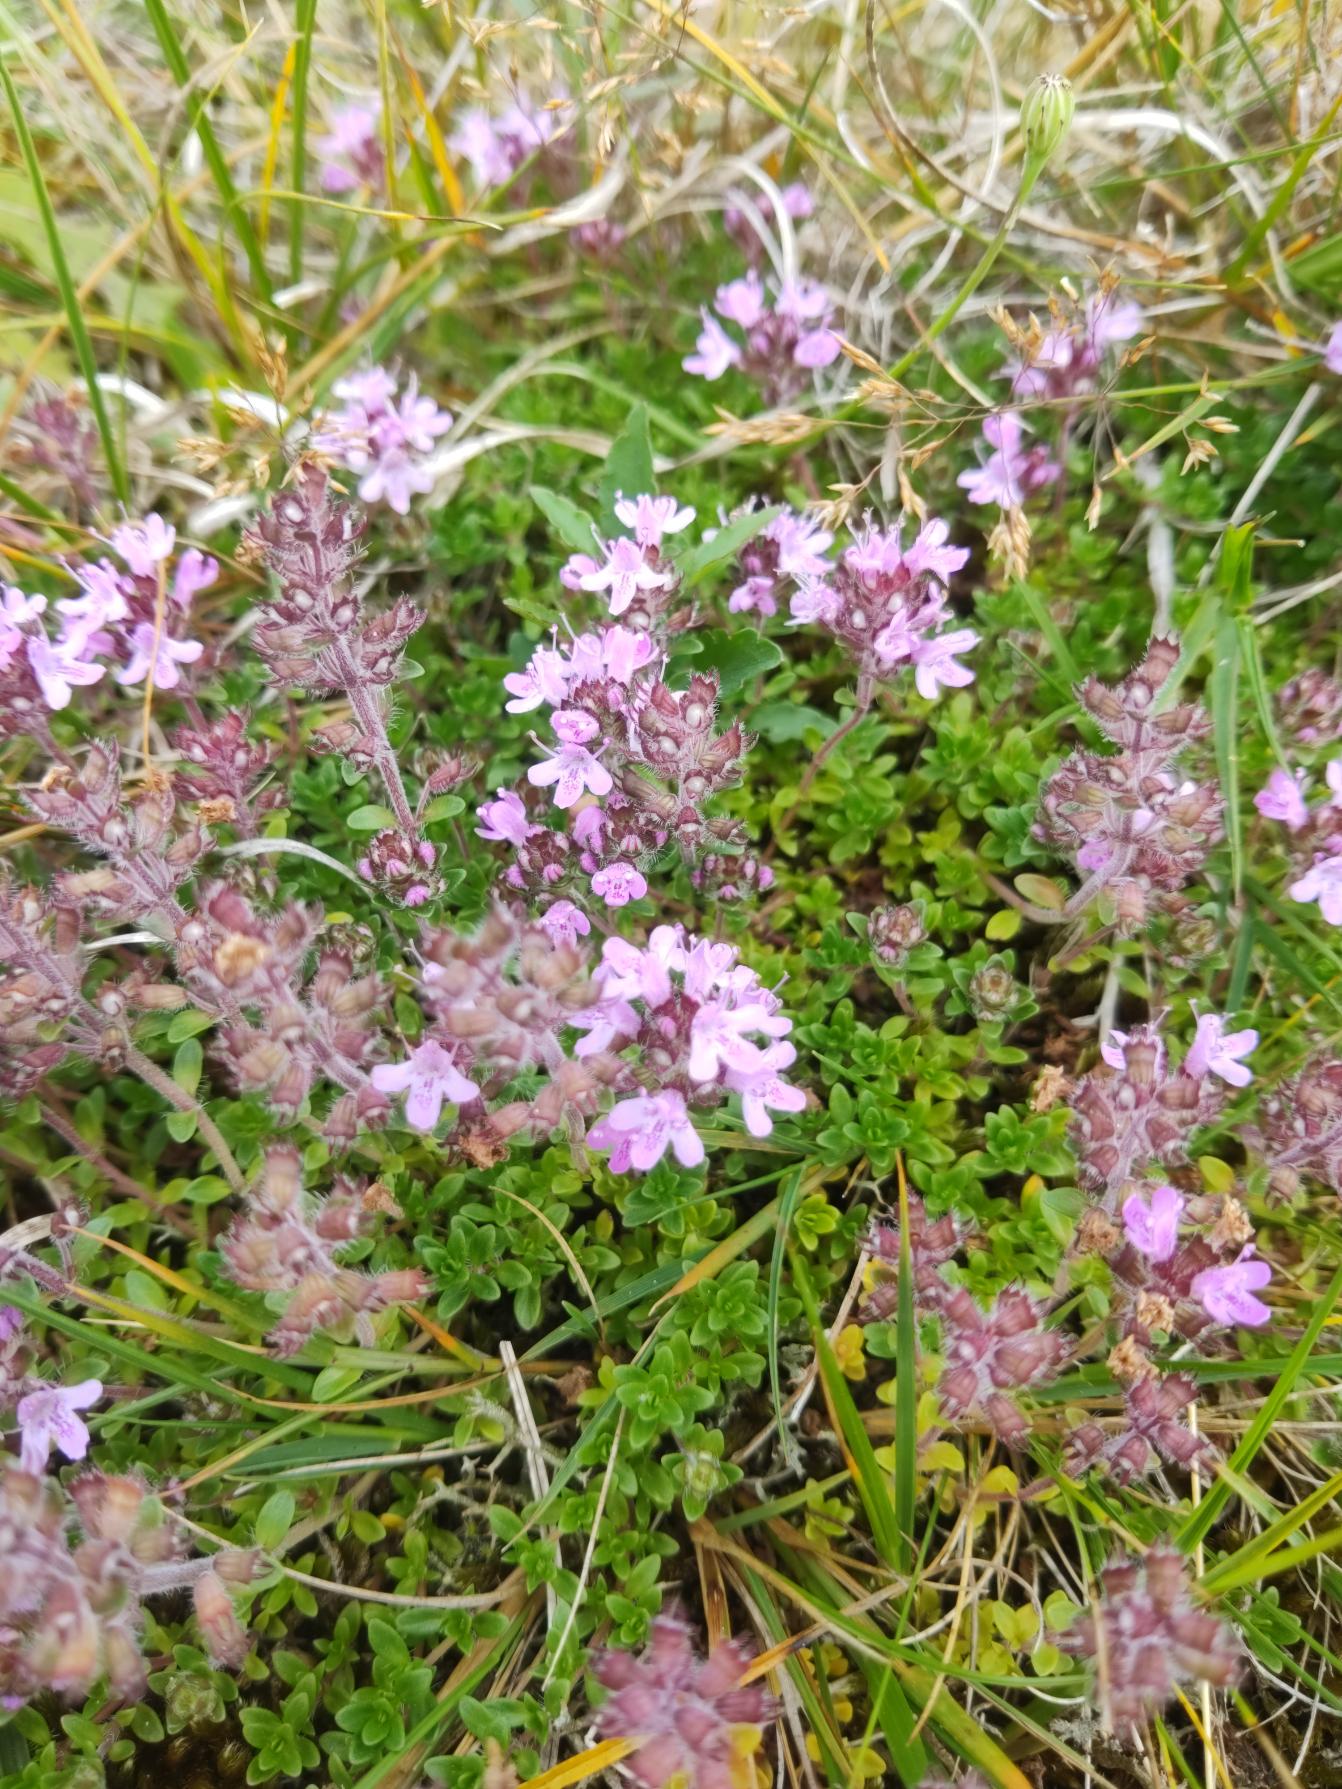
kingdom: Plantae
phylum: Tracheophyta
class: Magnoliopsida
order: Lamiales
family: Lamiaceae
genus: Thymus
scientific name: Thymus serpyllum
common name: Smalbladet timian
